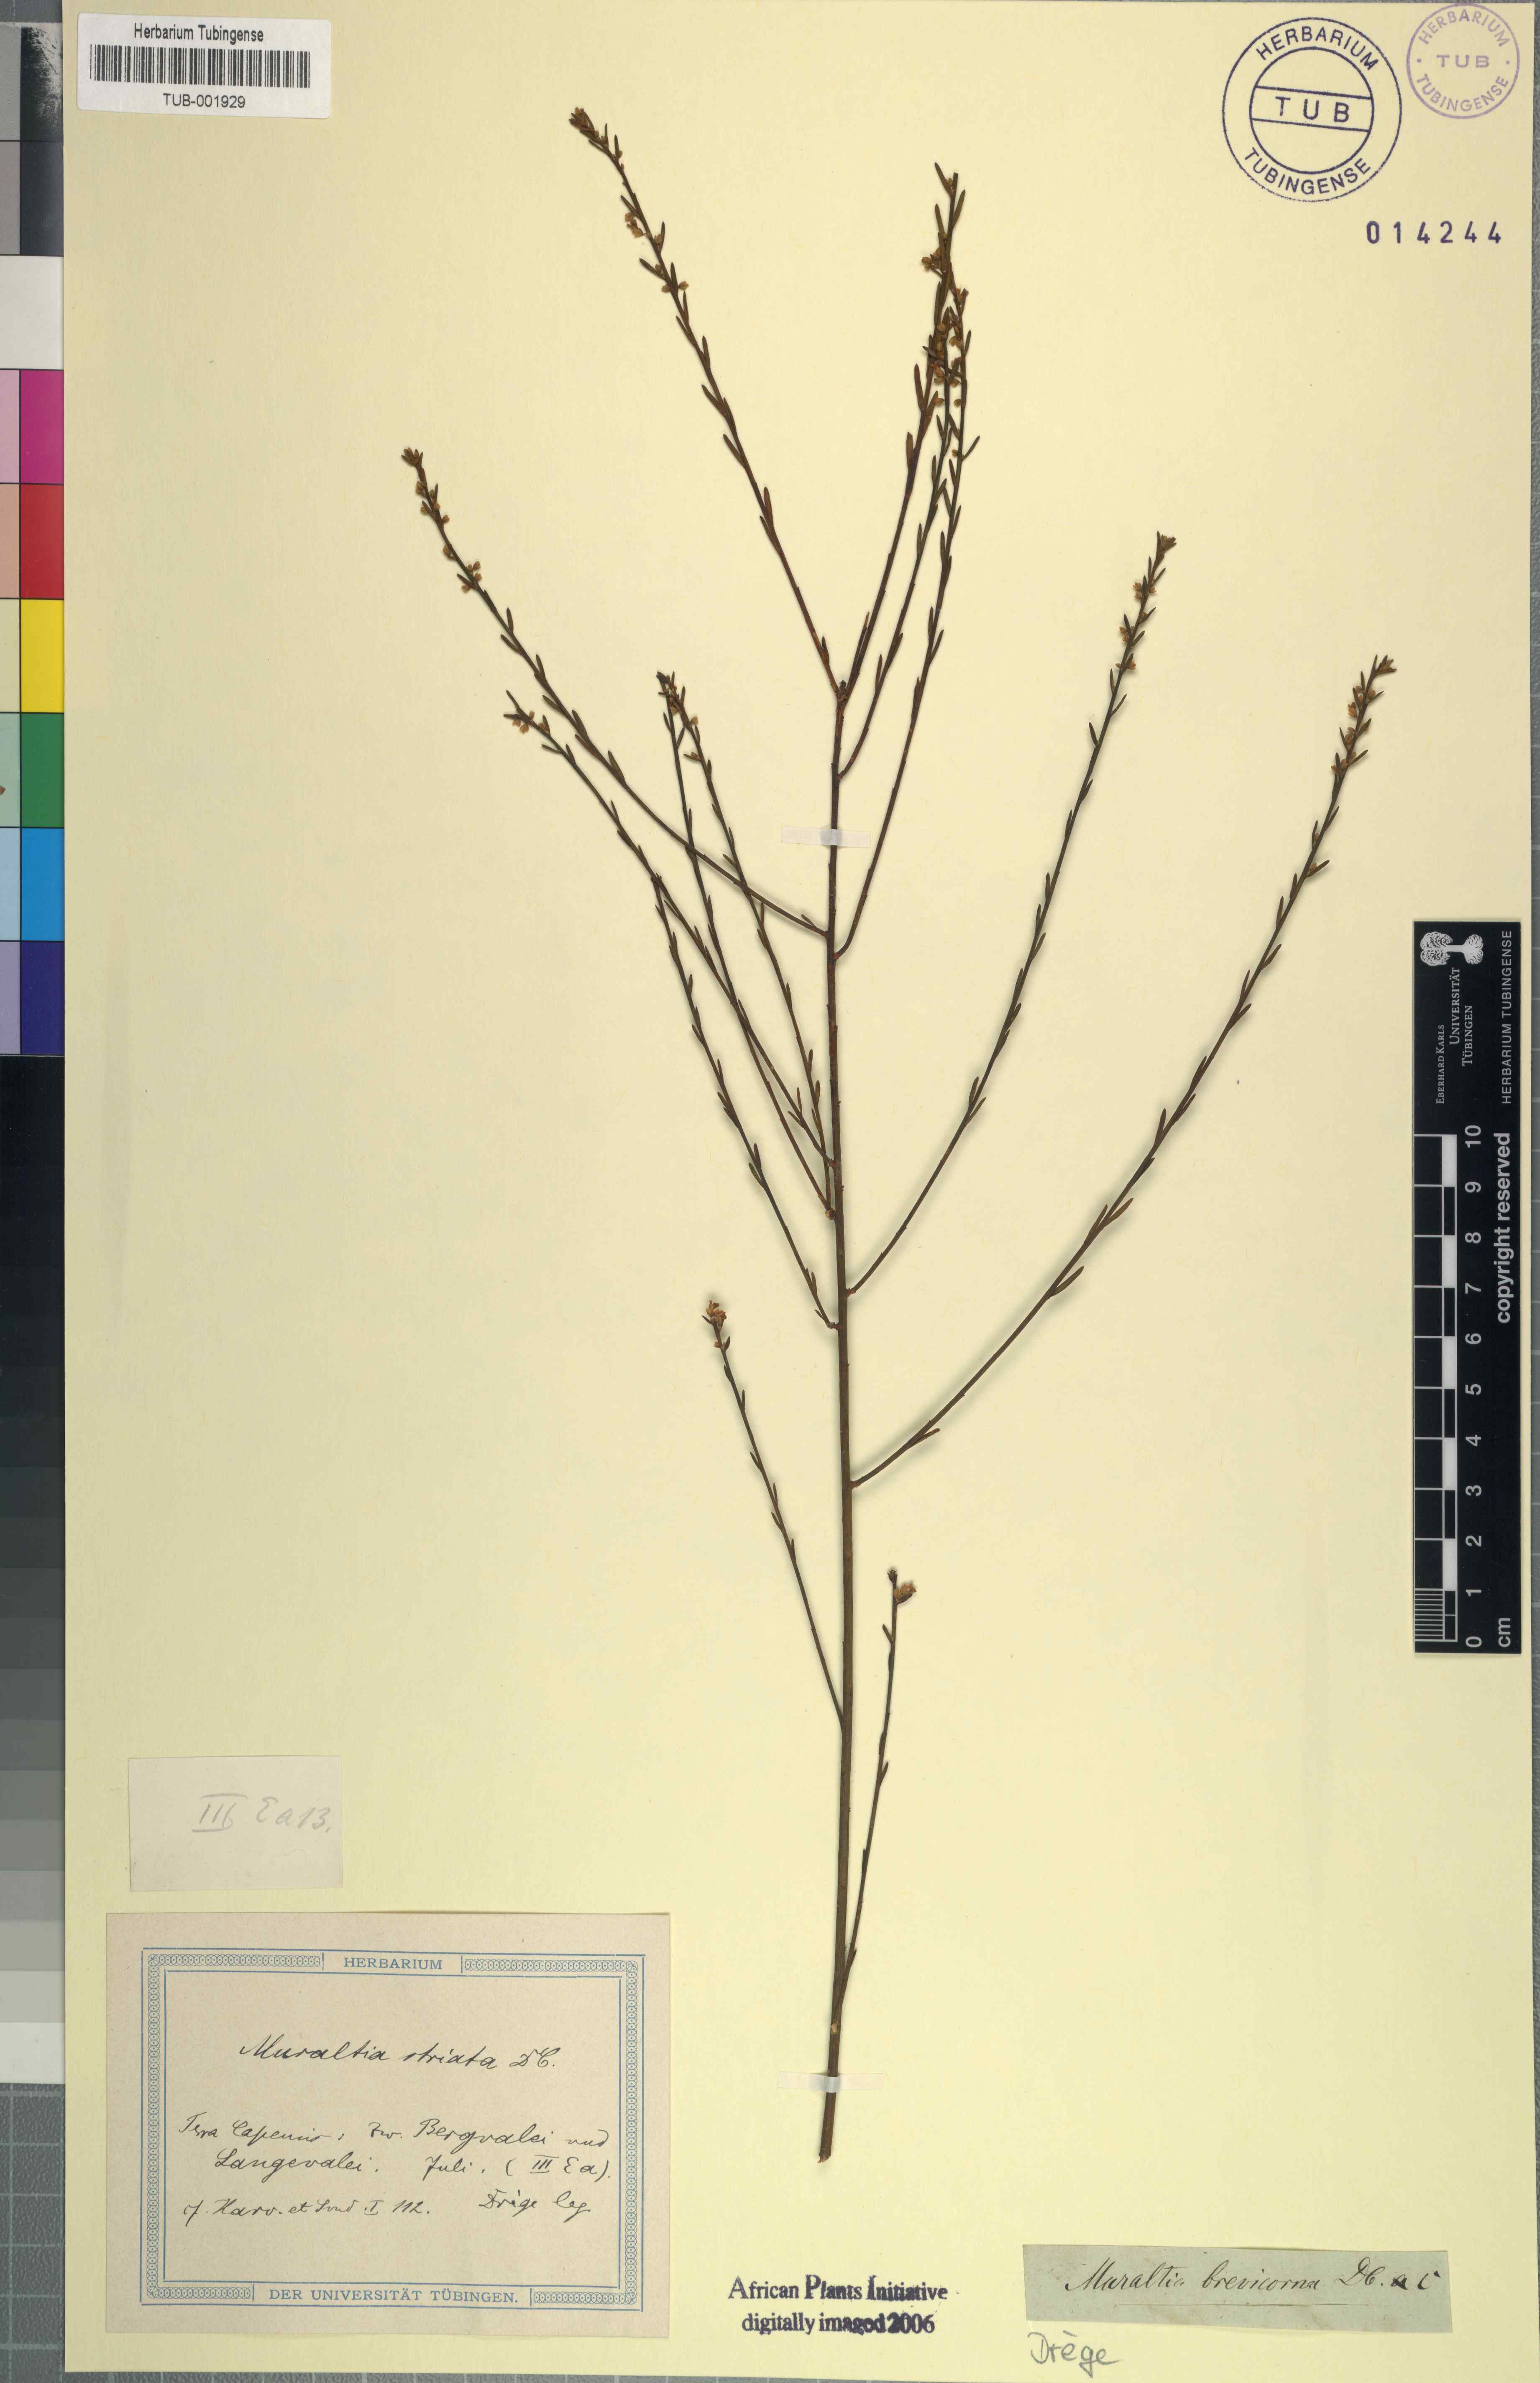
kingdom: Plantae
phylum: Tracheophyta
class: Magnoliopsida
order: Fabales
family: Polygalaceae
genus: Muraltia
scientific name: Muraltia striata
